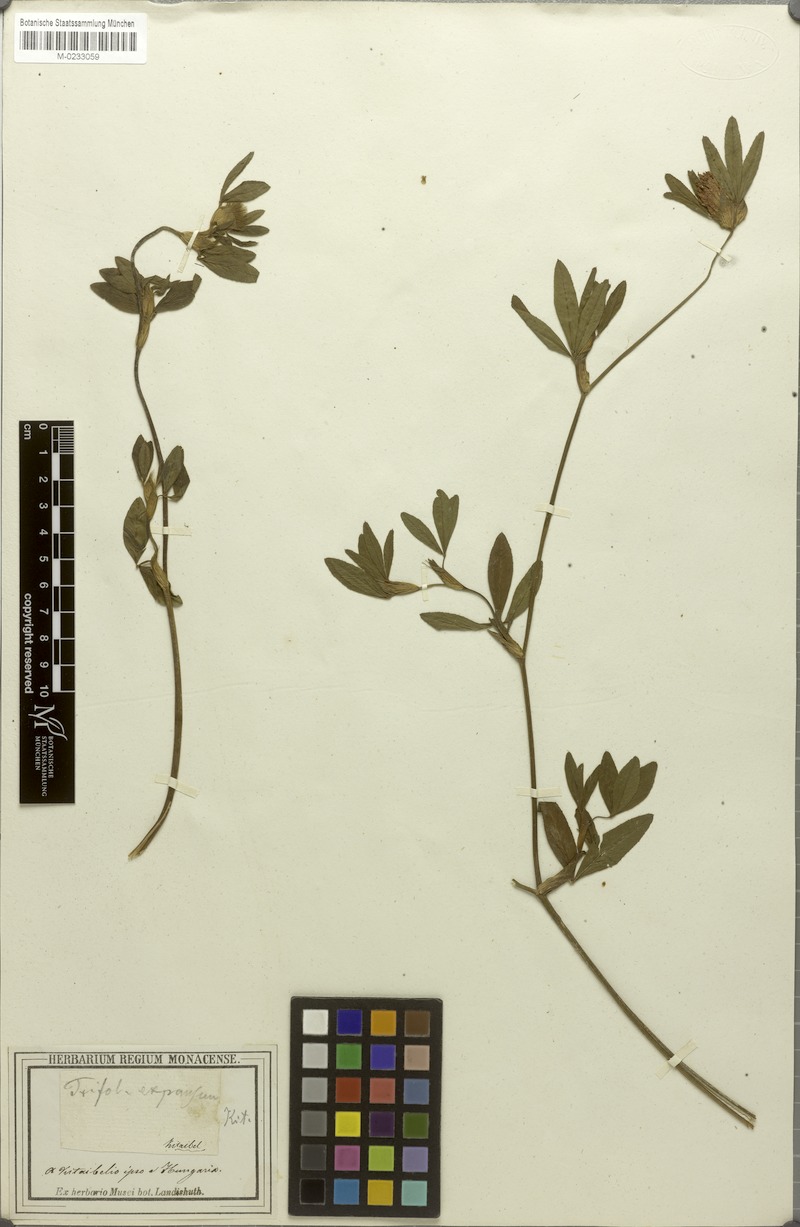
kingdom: Plantae
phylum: Tracheophyta
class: Magnoliopsida
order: Fabales
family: Fabaceae
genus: Trifolium
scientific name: Trifolium pratense
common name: Red clover
